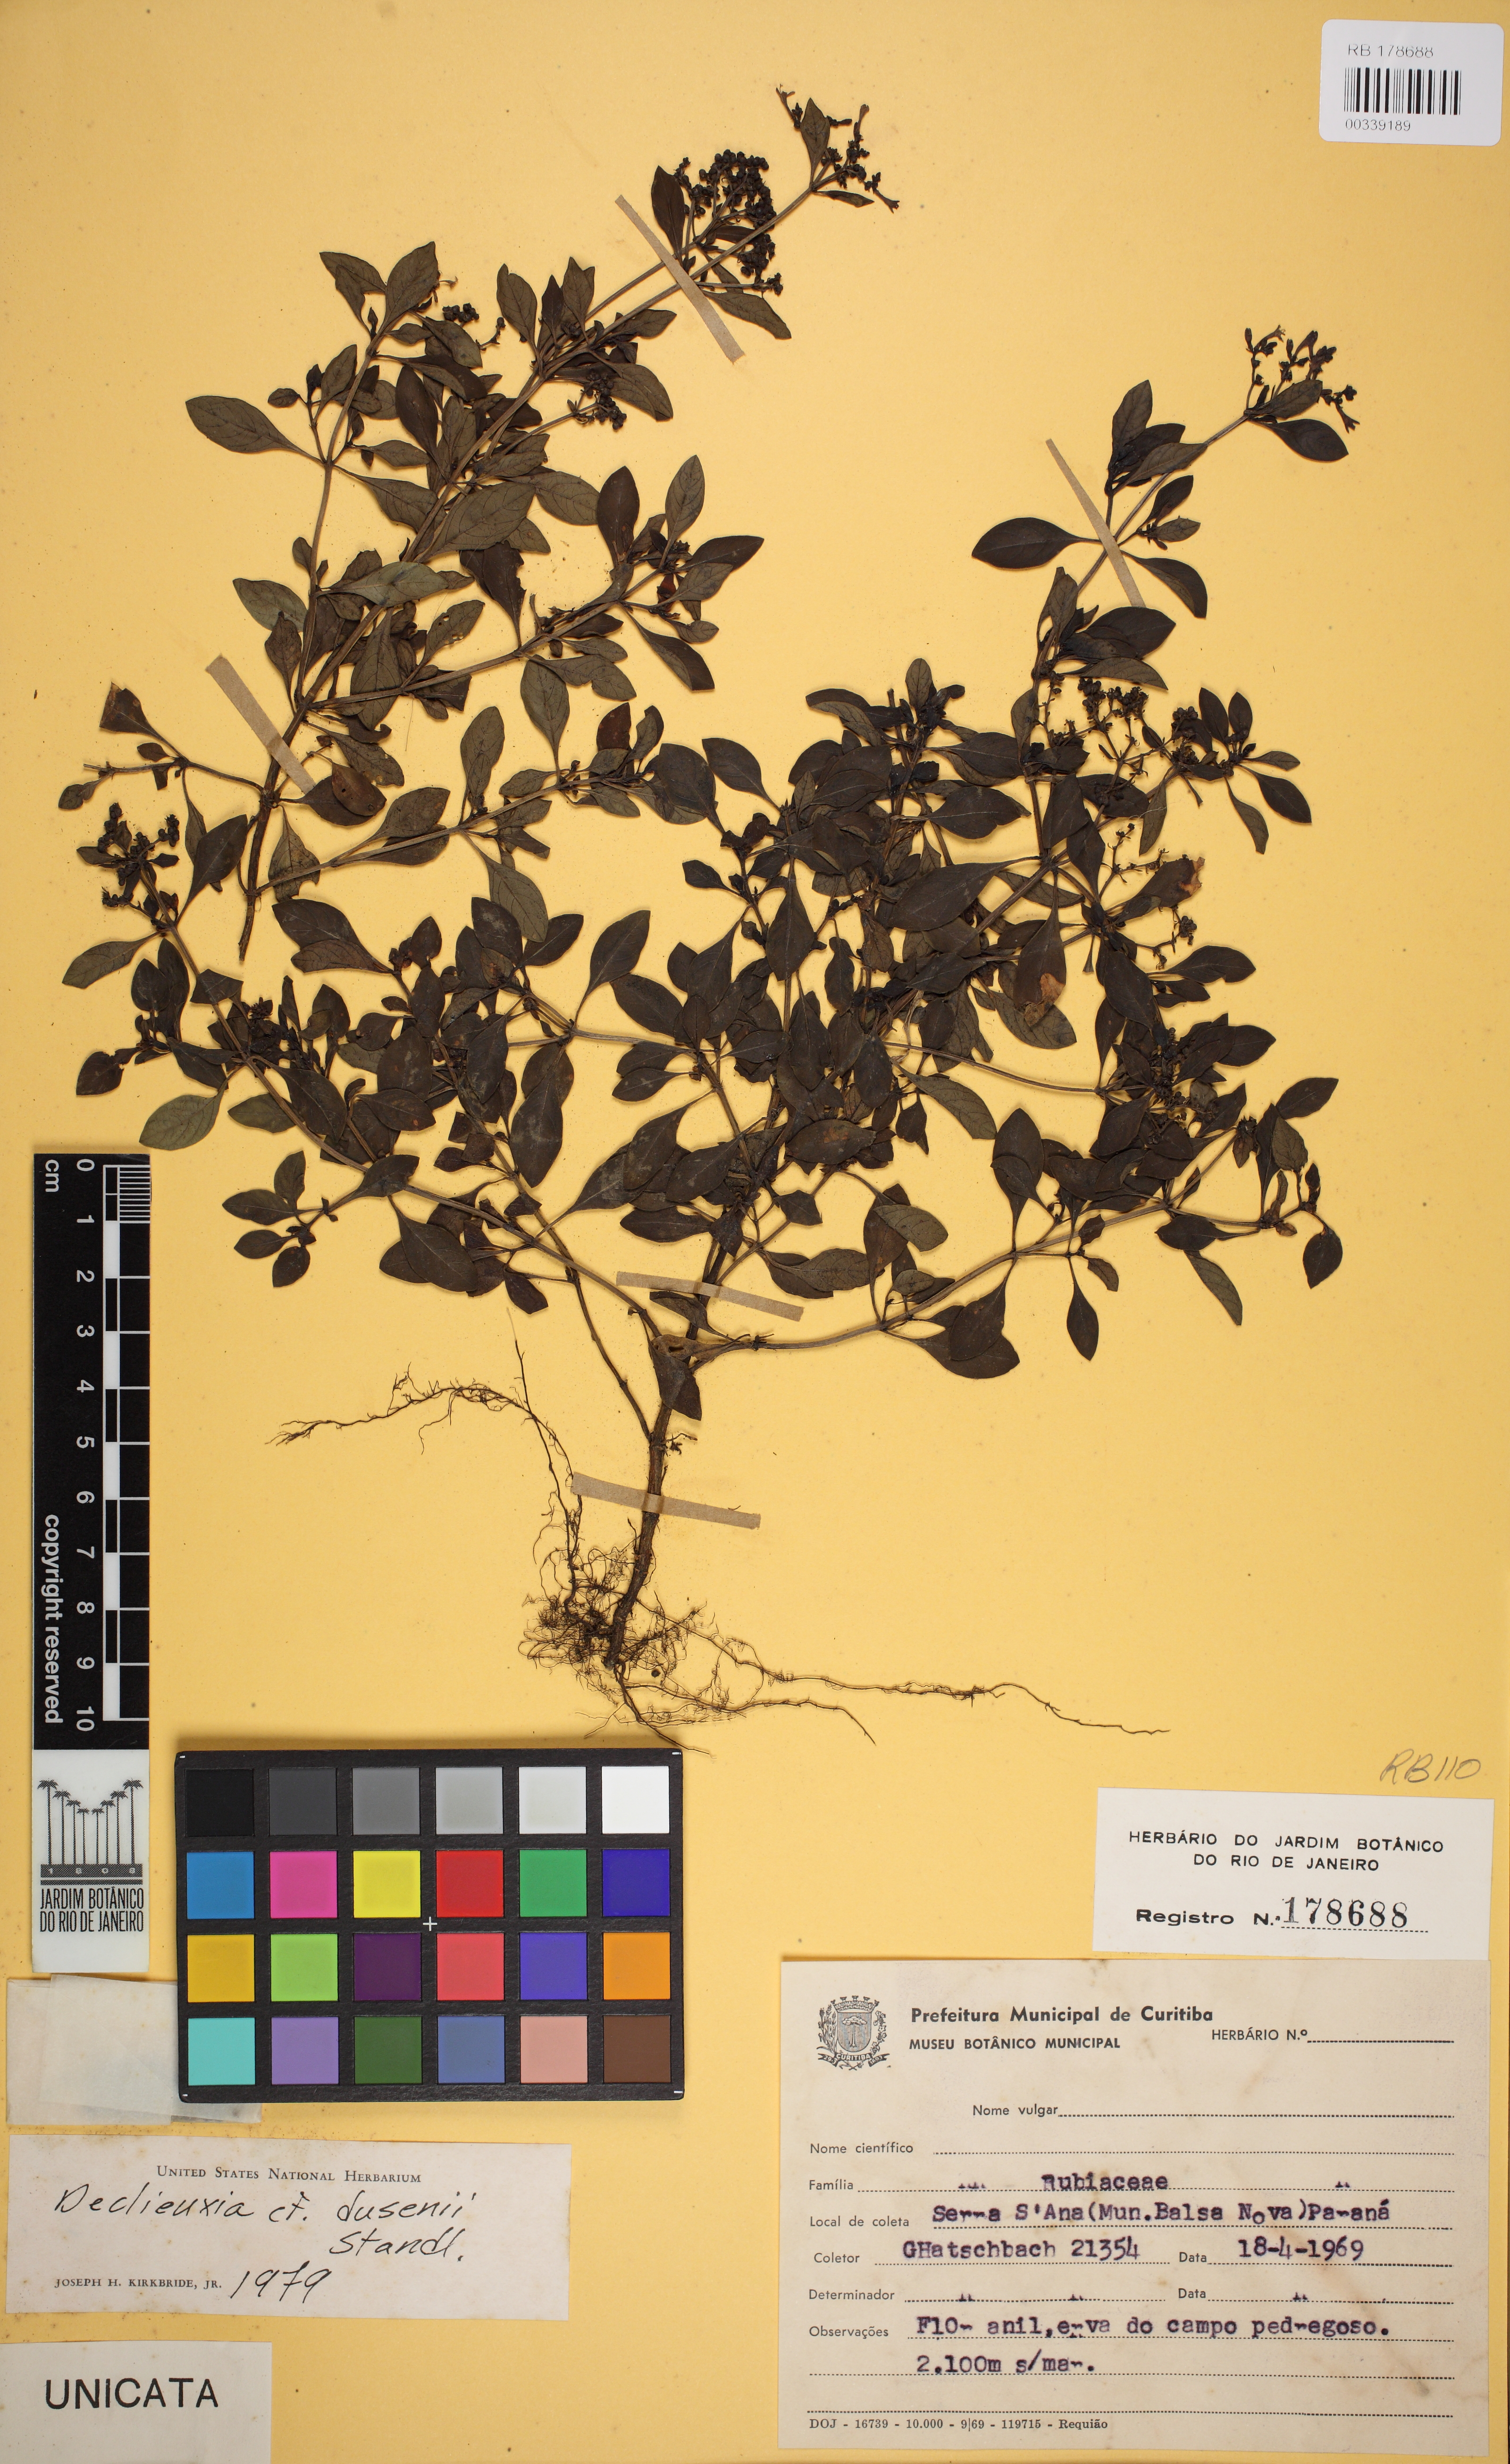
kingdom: Plantae
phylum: Tracheophyta
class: Magnoliopsida
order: Gentianales
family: Rubiaceae
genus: Declieuxia
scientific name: Declieuxia dusenii
